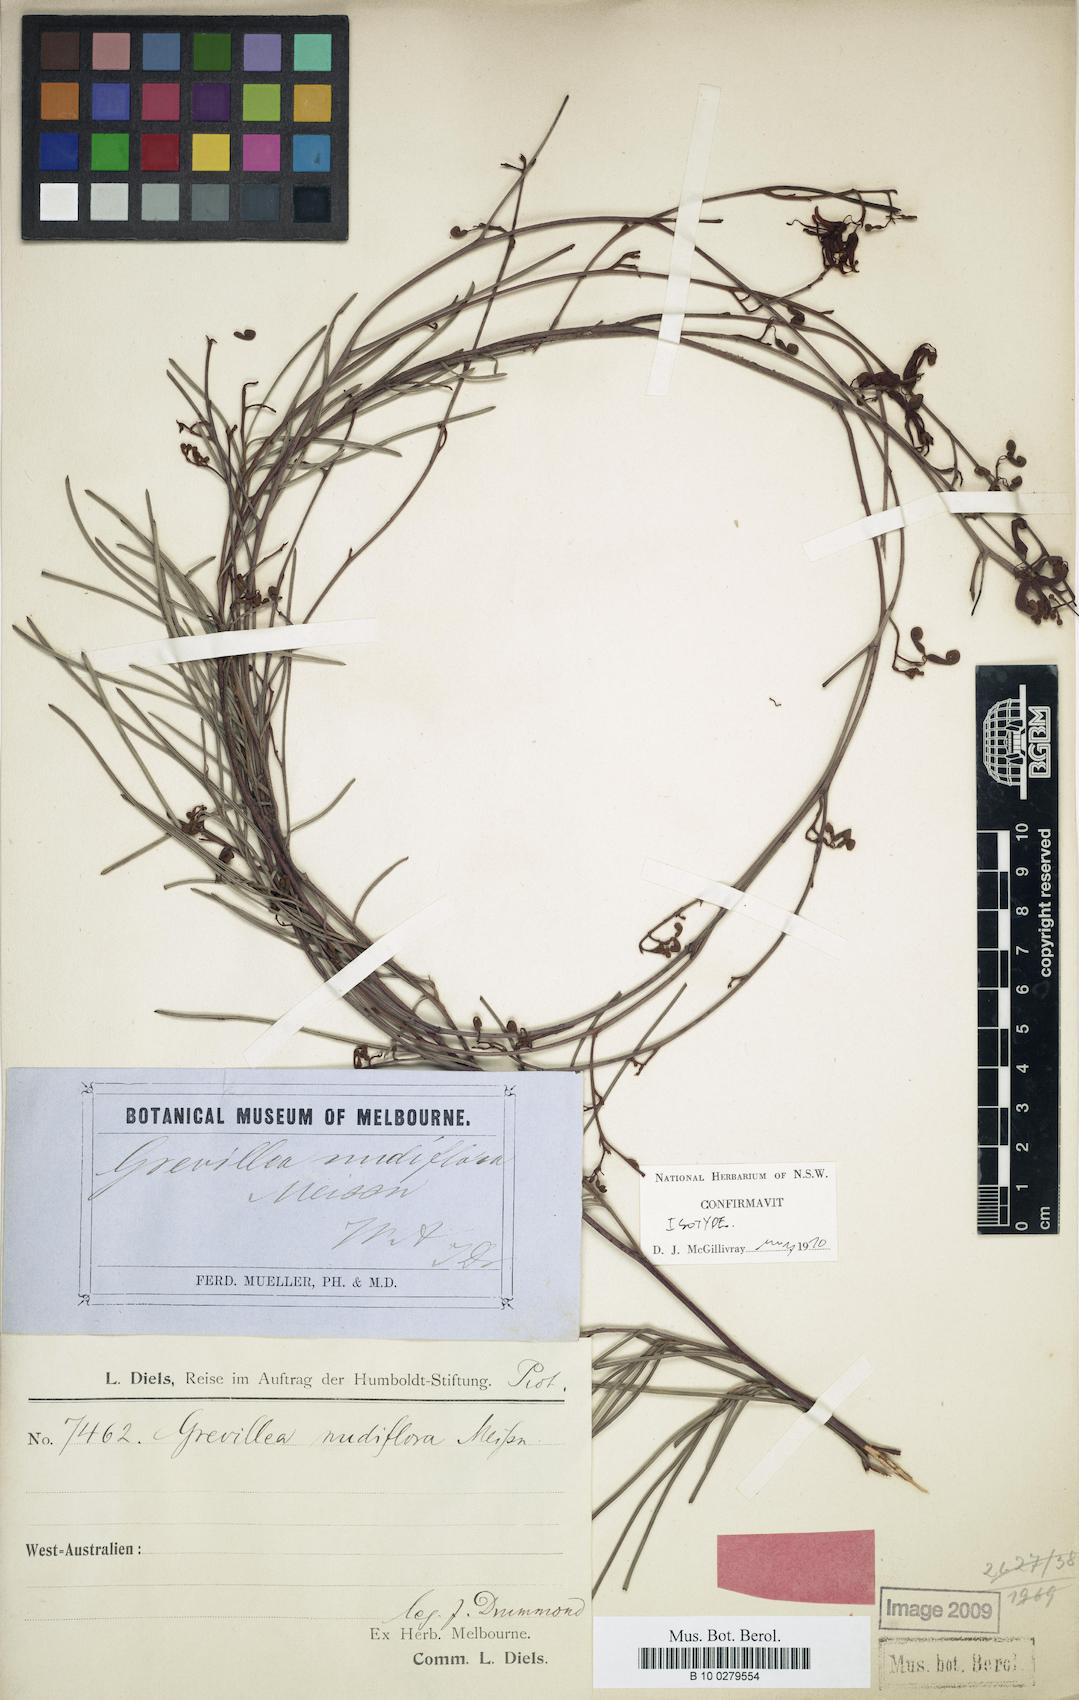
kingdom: Plantae
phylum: Tracheophyta
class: Magnoliopsida
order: Proteales
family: Proteaceae
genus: Grevillea
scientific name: Grevillea nudiflora
